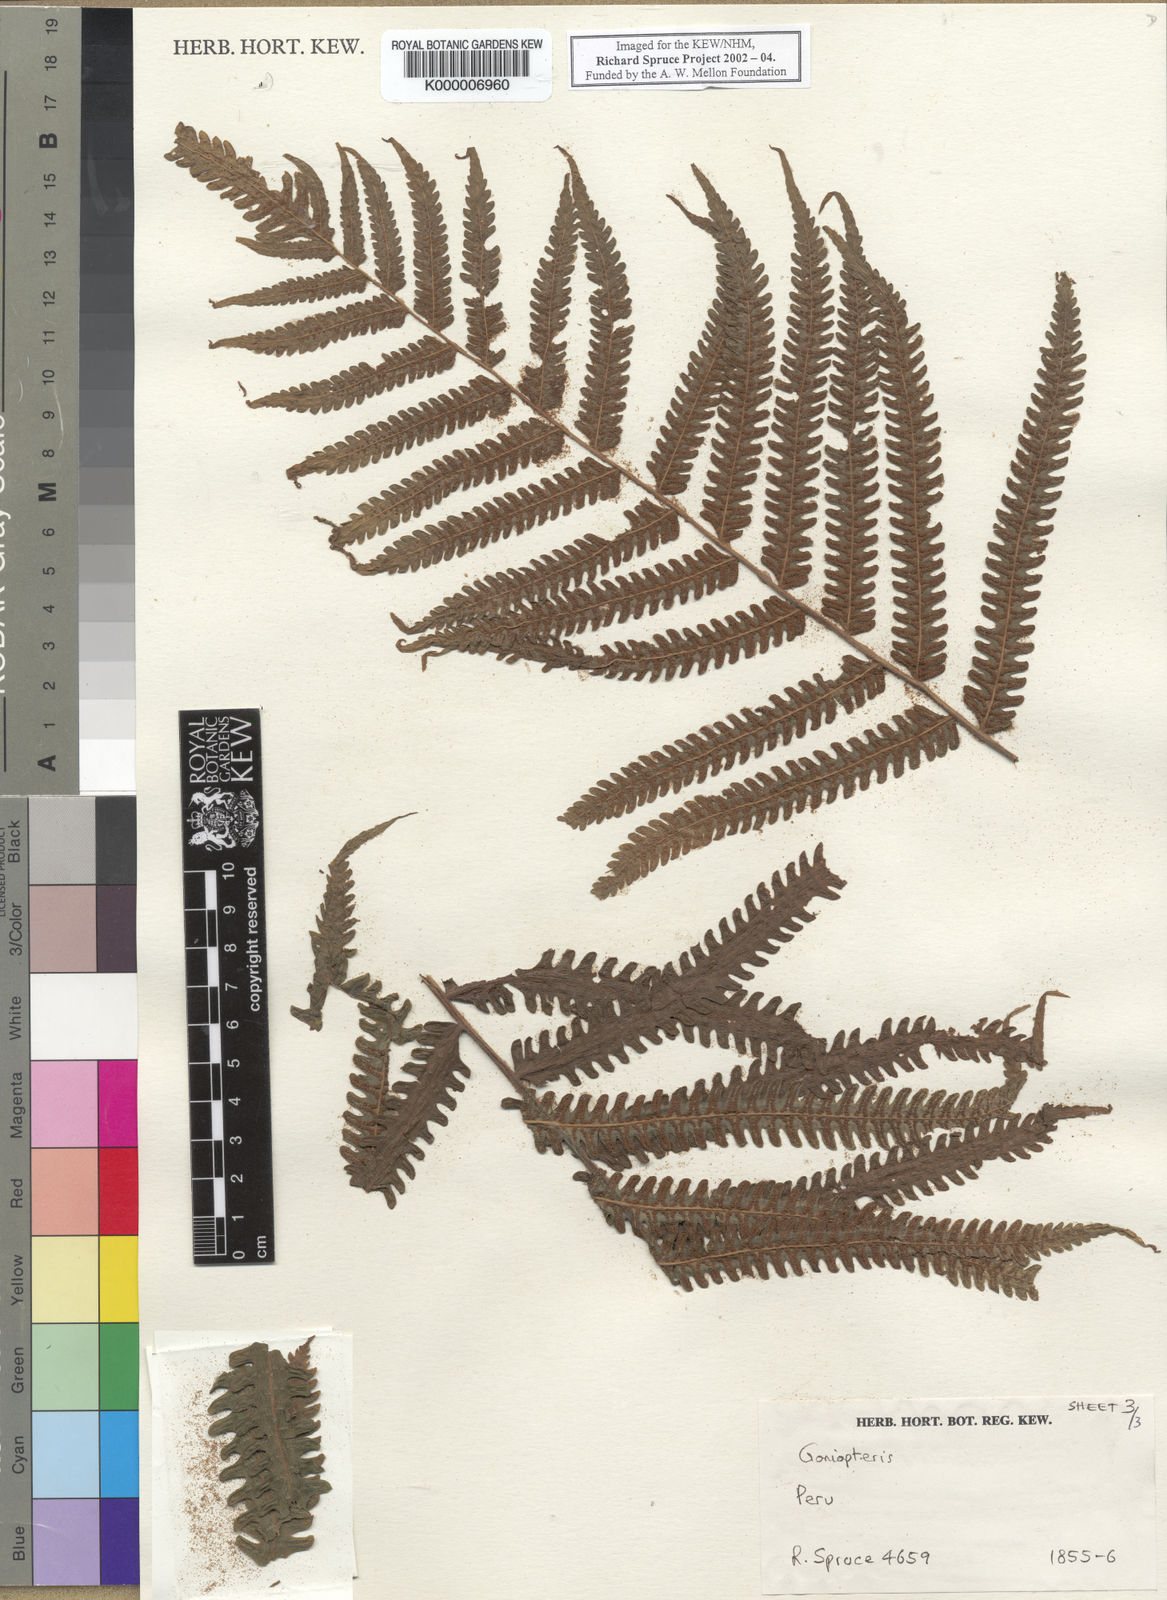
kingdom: Plantae
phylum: Tracheophyta
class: Polypodiopsida
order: Polypodiales
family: Thelypteridaceae
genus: Goniopteris
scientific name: Goniopteris biolleyi
